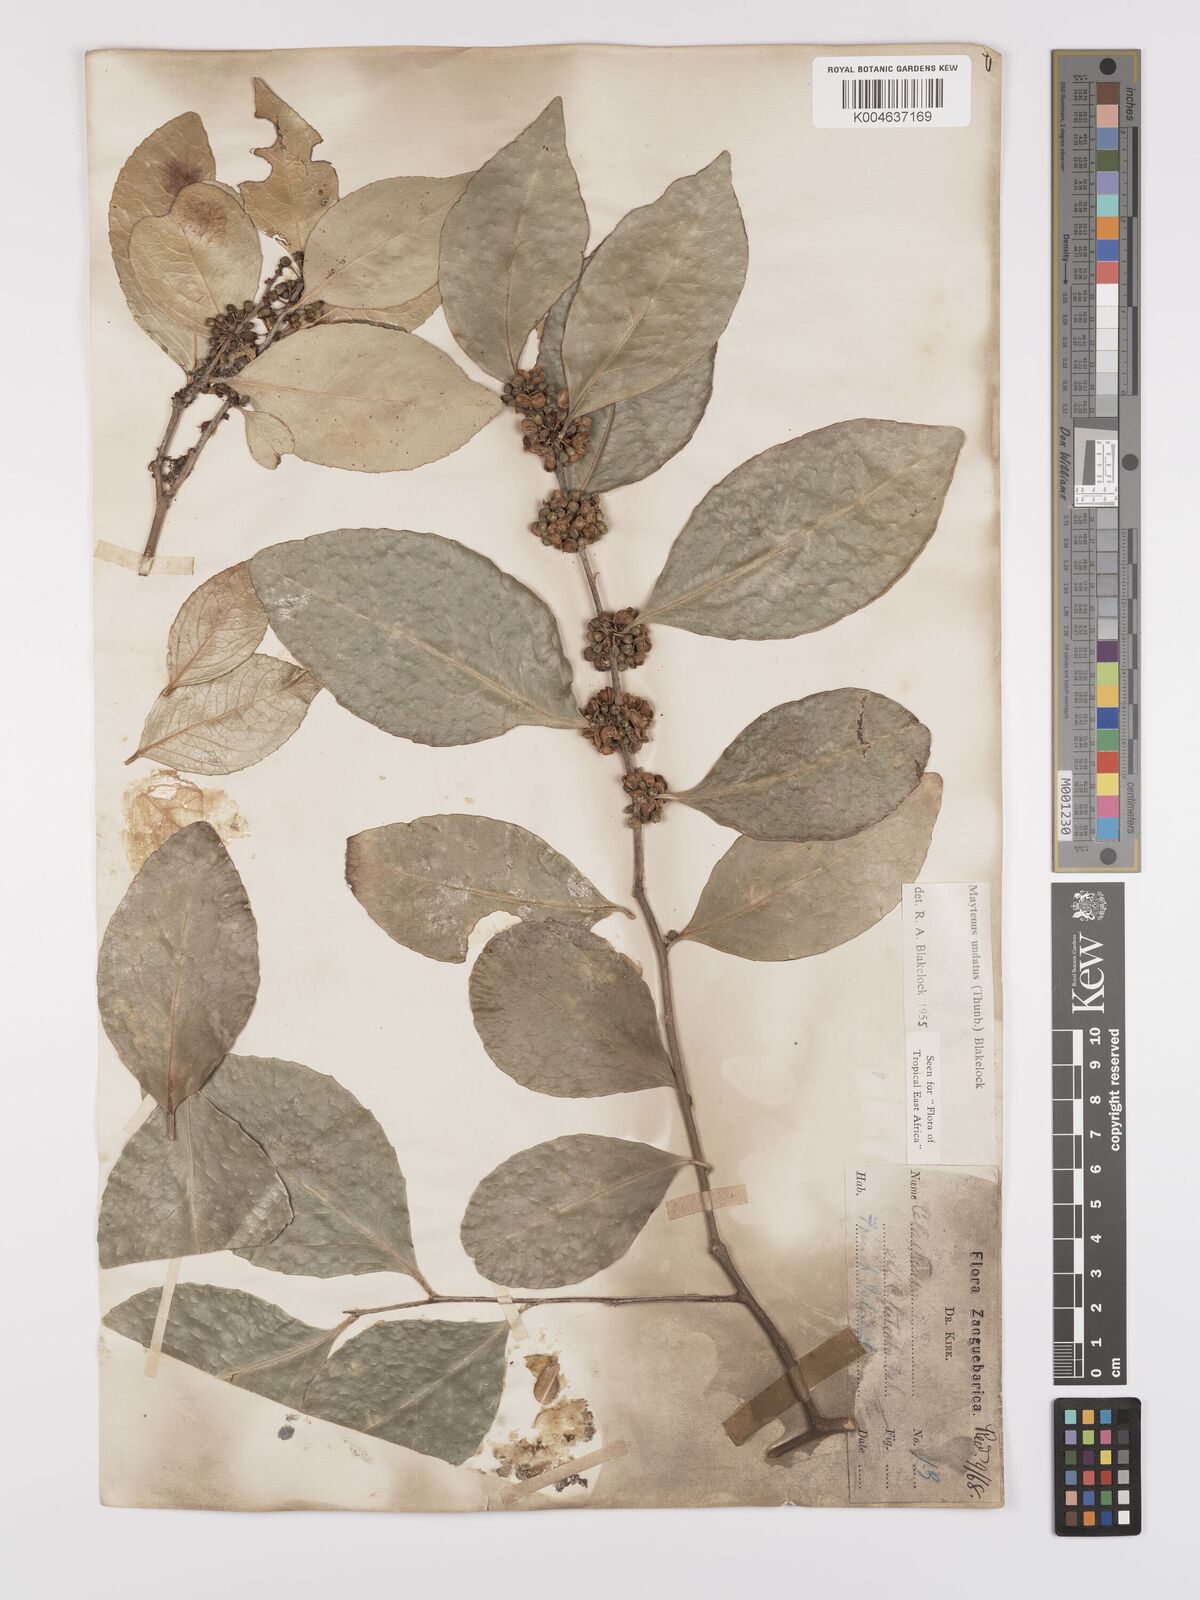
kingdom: Plantae
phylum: Tracheophyta
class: Magnoliopsida
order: Celastrales
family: Celastraceae
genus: Gymnosporia
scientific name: Gymnosporia undata
